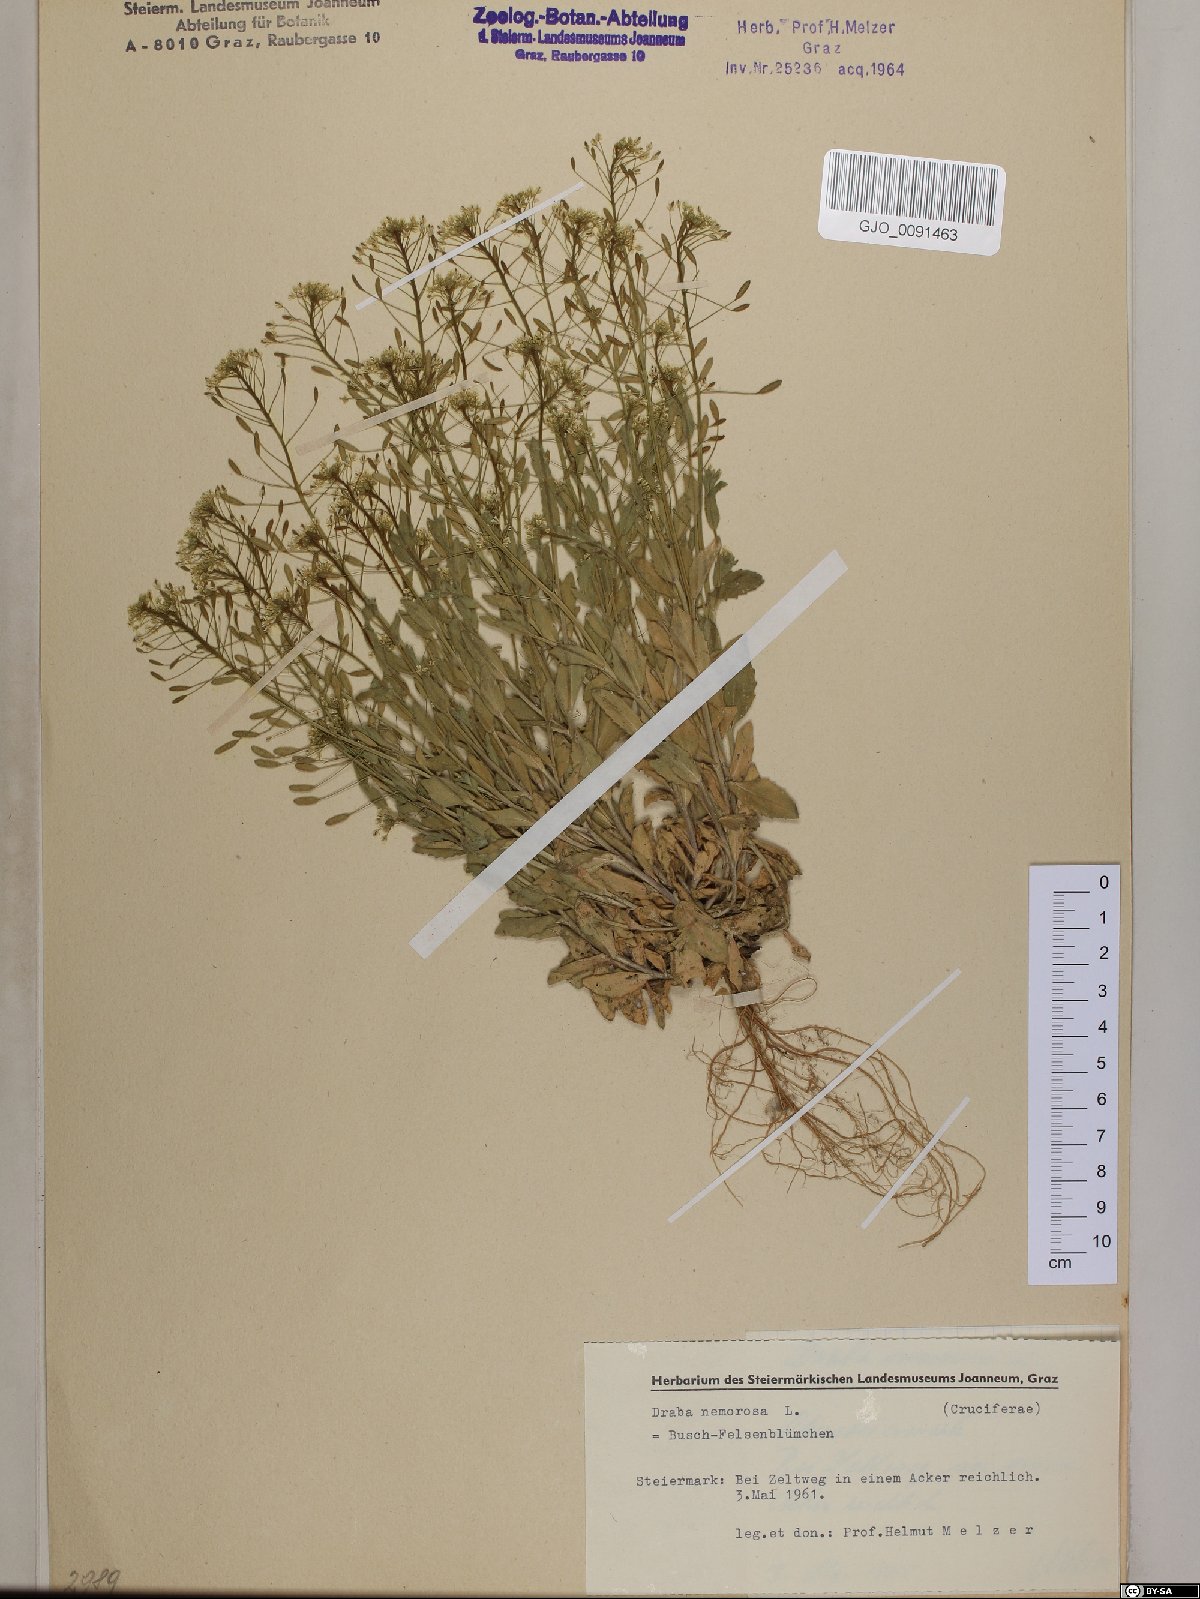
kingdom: Plantae
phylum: Tracheophyta
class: Magnoliopsida
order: Brassicales
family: Brassicaceae
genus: Draba
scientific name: Draba nemorosa
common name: Wood whitlow-grass
